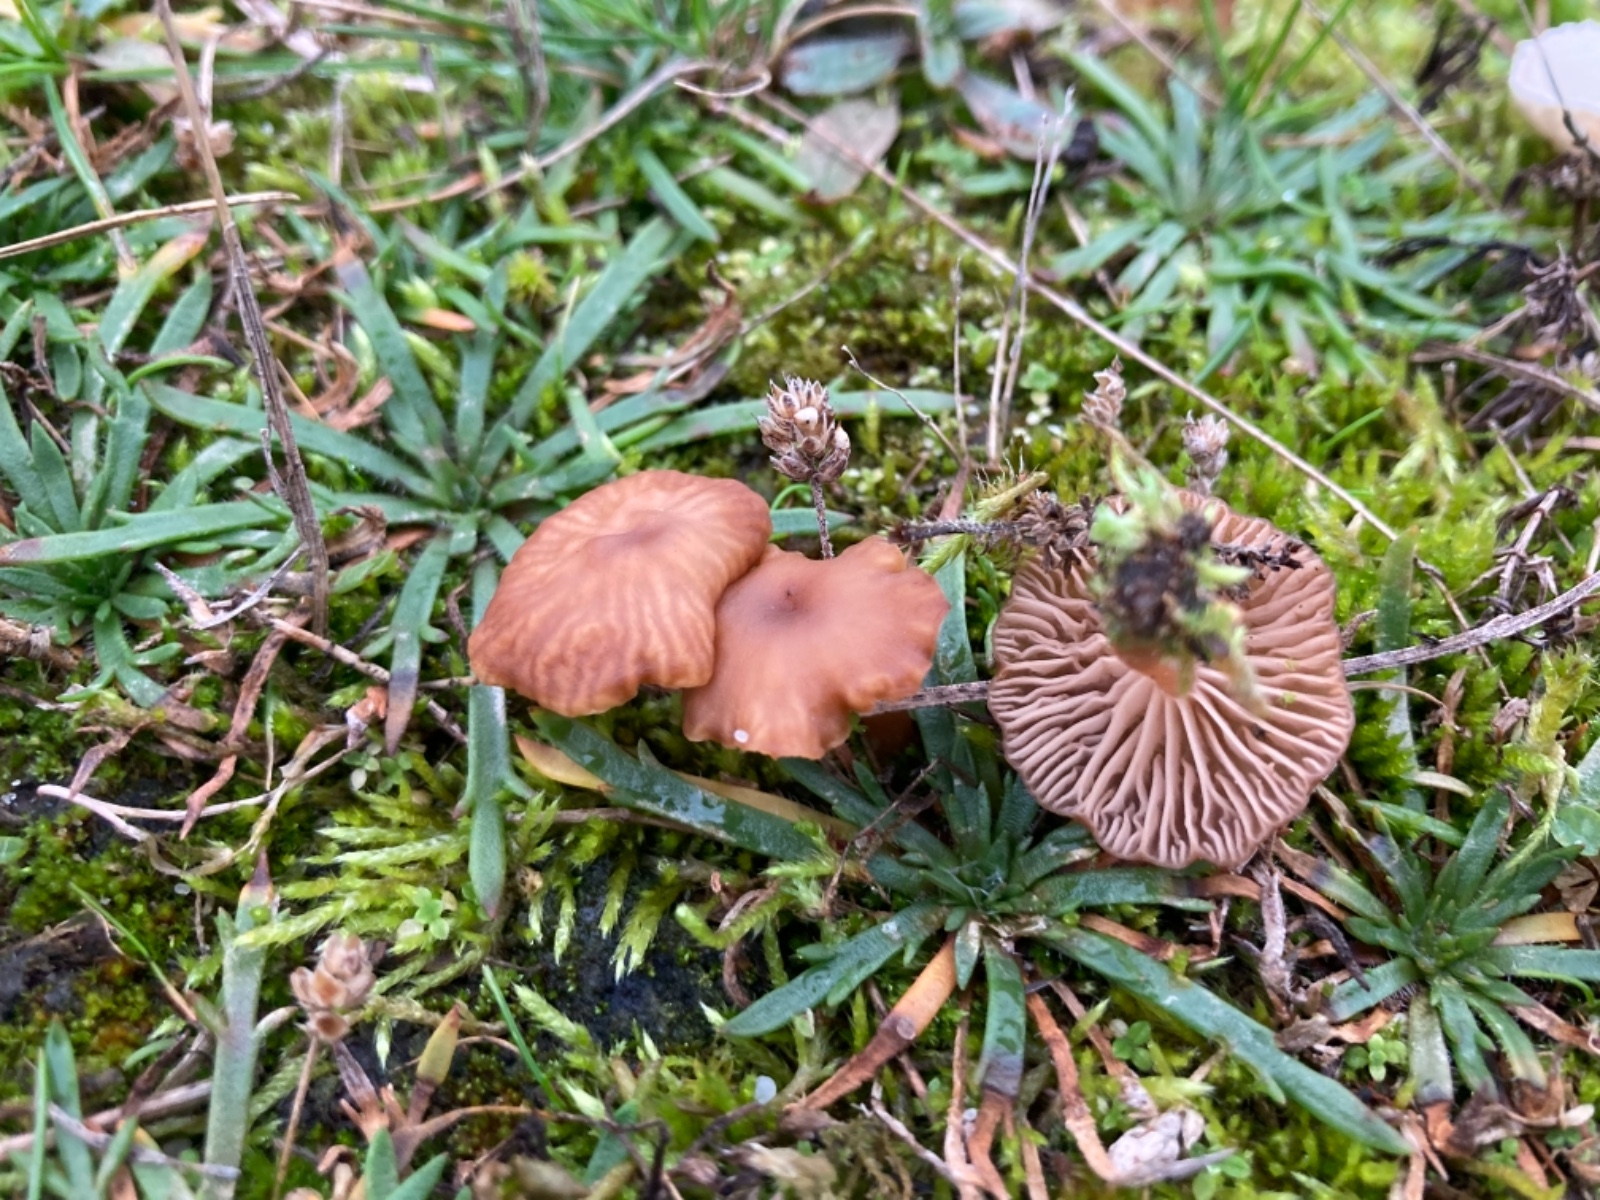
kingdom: Fungi
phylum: Basidiomycota
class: Agaricomycetes
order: Agaricales
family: Tricholomataceae
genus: Omphalina
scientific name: Omphalina pyxidata
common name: rødbrun navlehat
